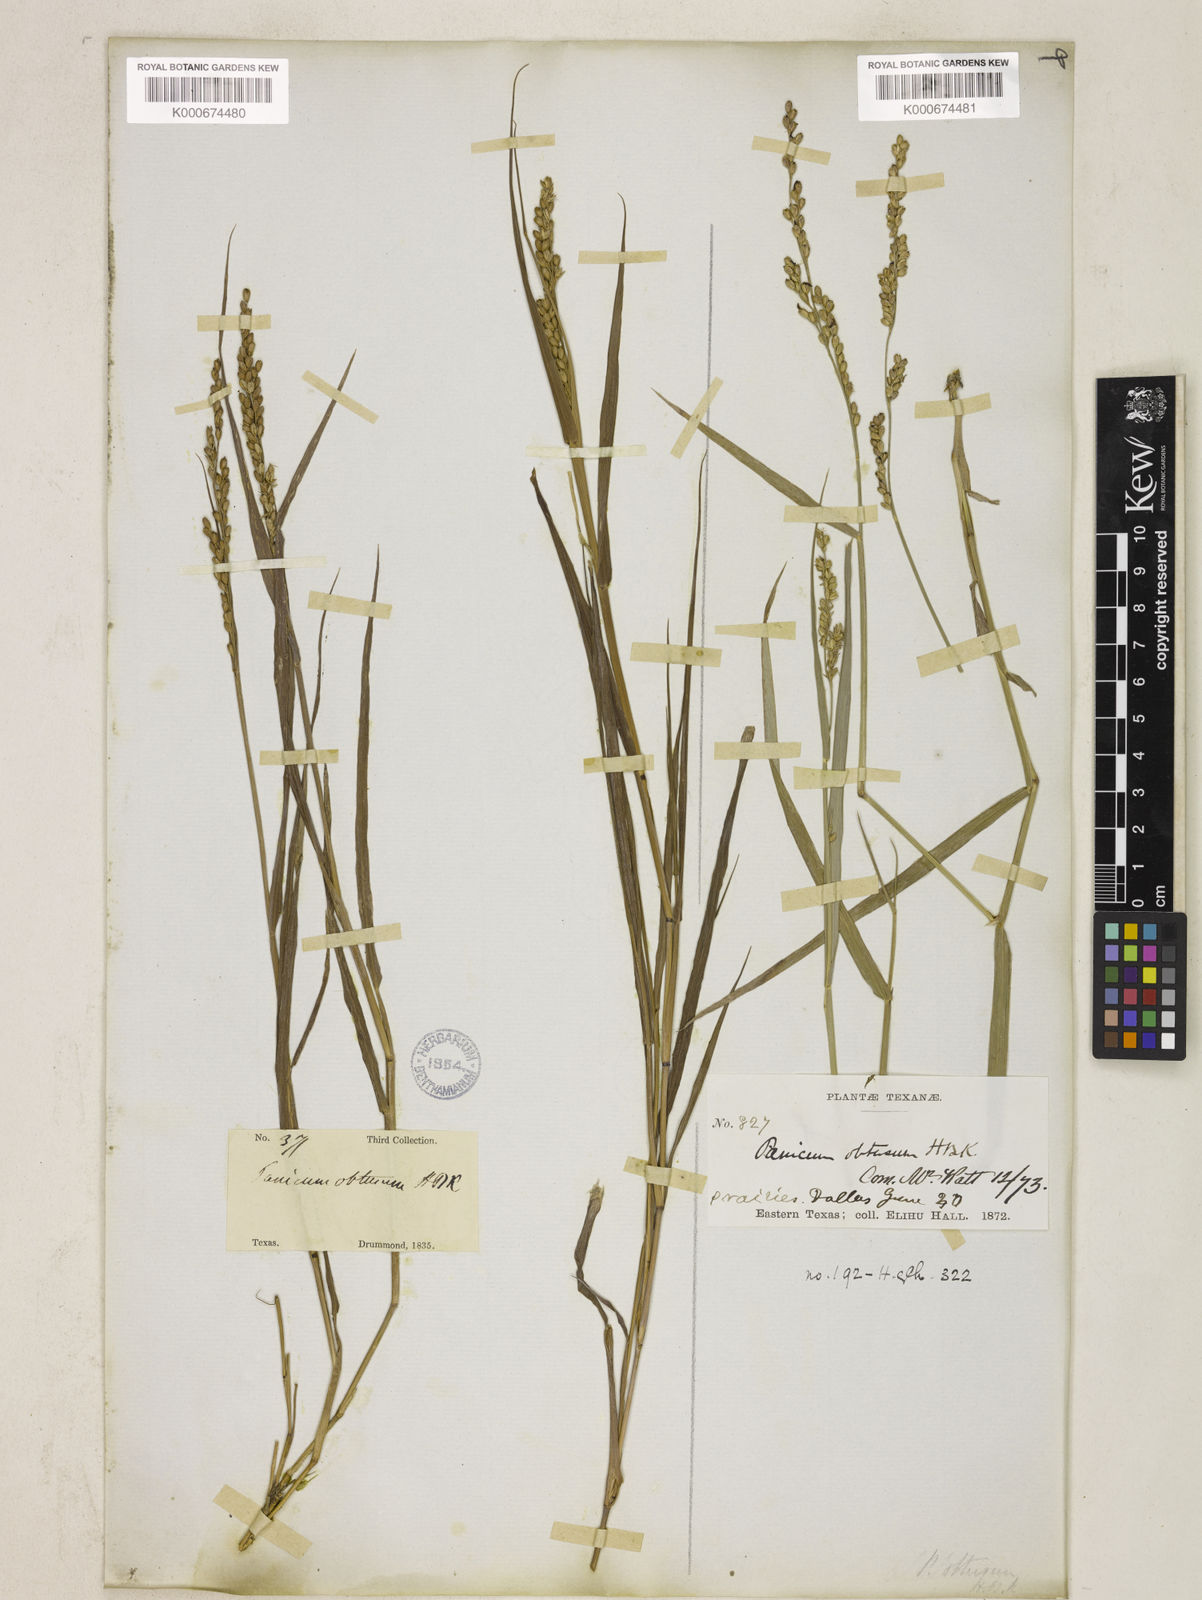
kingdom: Plantae
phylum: Tracheophyta
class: Liliopsida
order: Poales
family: Poaceae
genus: Hopia
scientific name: Hopia obtusa
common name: Vine-mesquite
